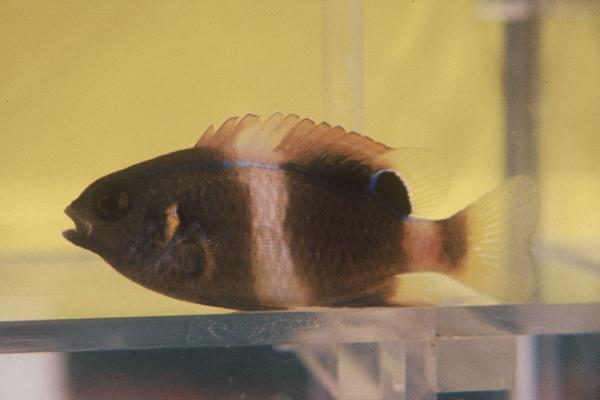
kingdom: Animalia
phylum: Chordata
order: Perciformes
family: Pomacentridae
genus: Chrysiptera
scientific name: Chrysiptera
